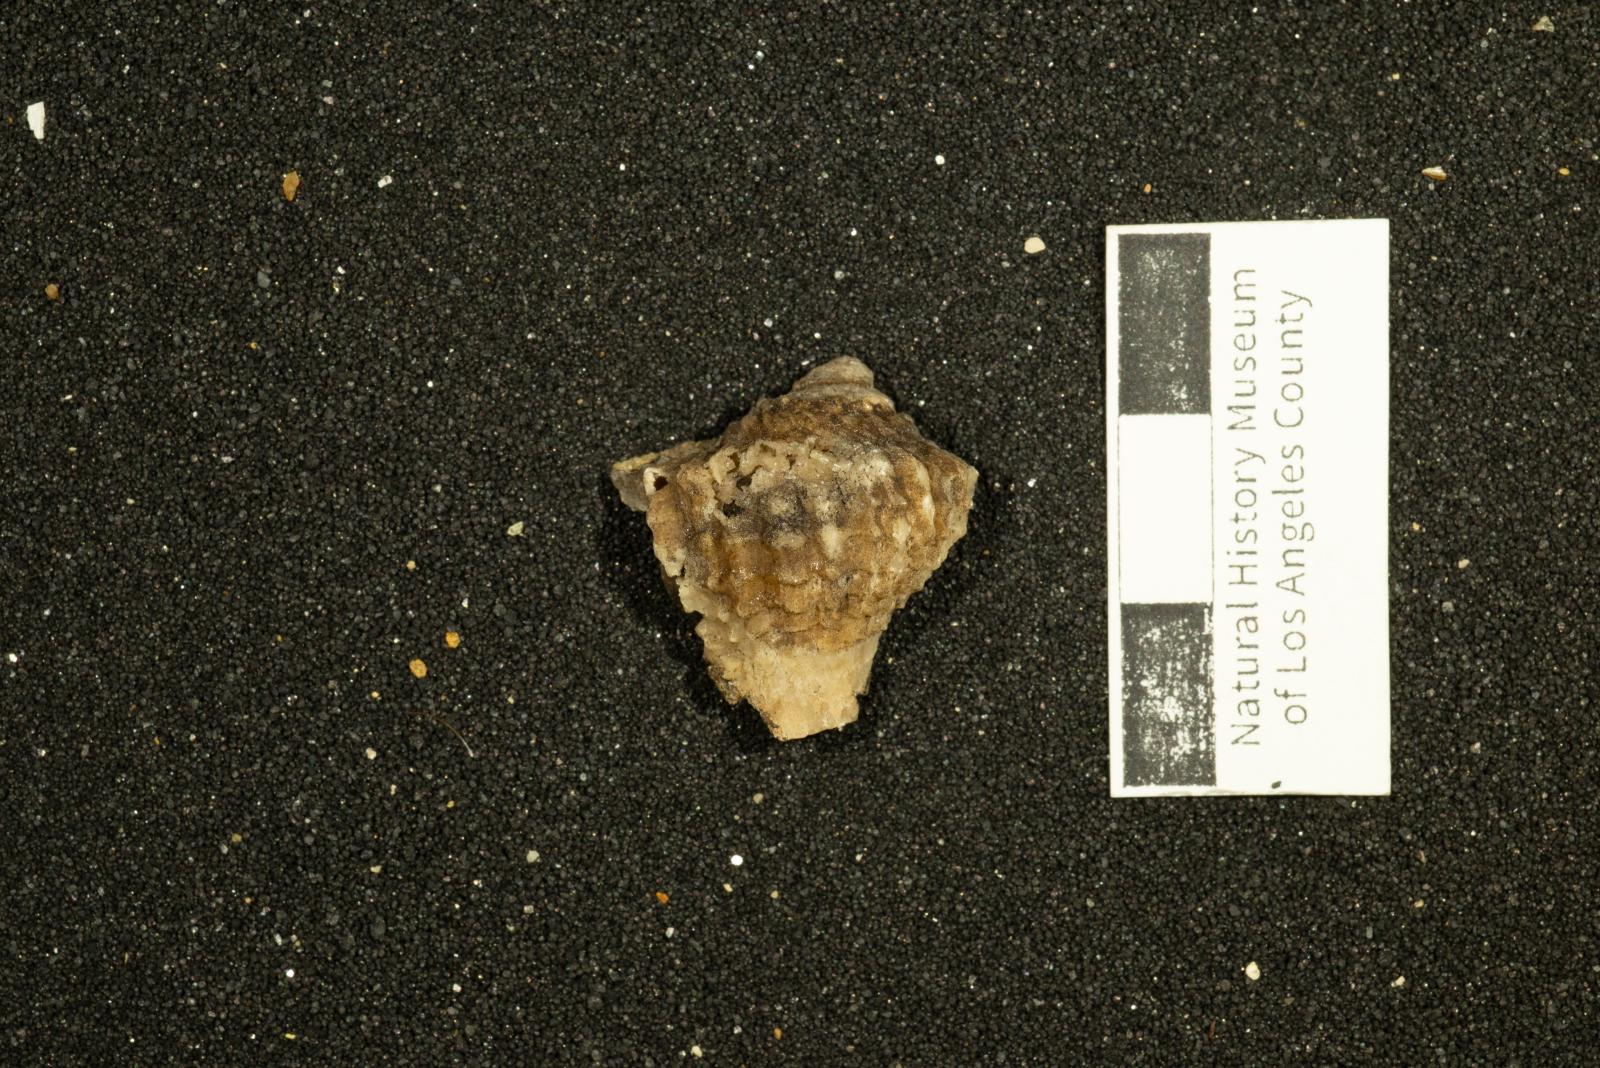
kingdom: Animalia
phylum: Mollusca
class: Gastropoda
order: Neogastropoda
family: Sarganidae
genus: Praesargana
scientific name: Praesargana Trophon condoni
